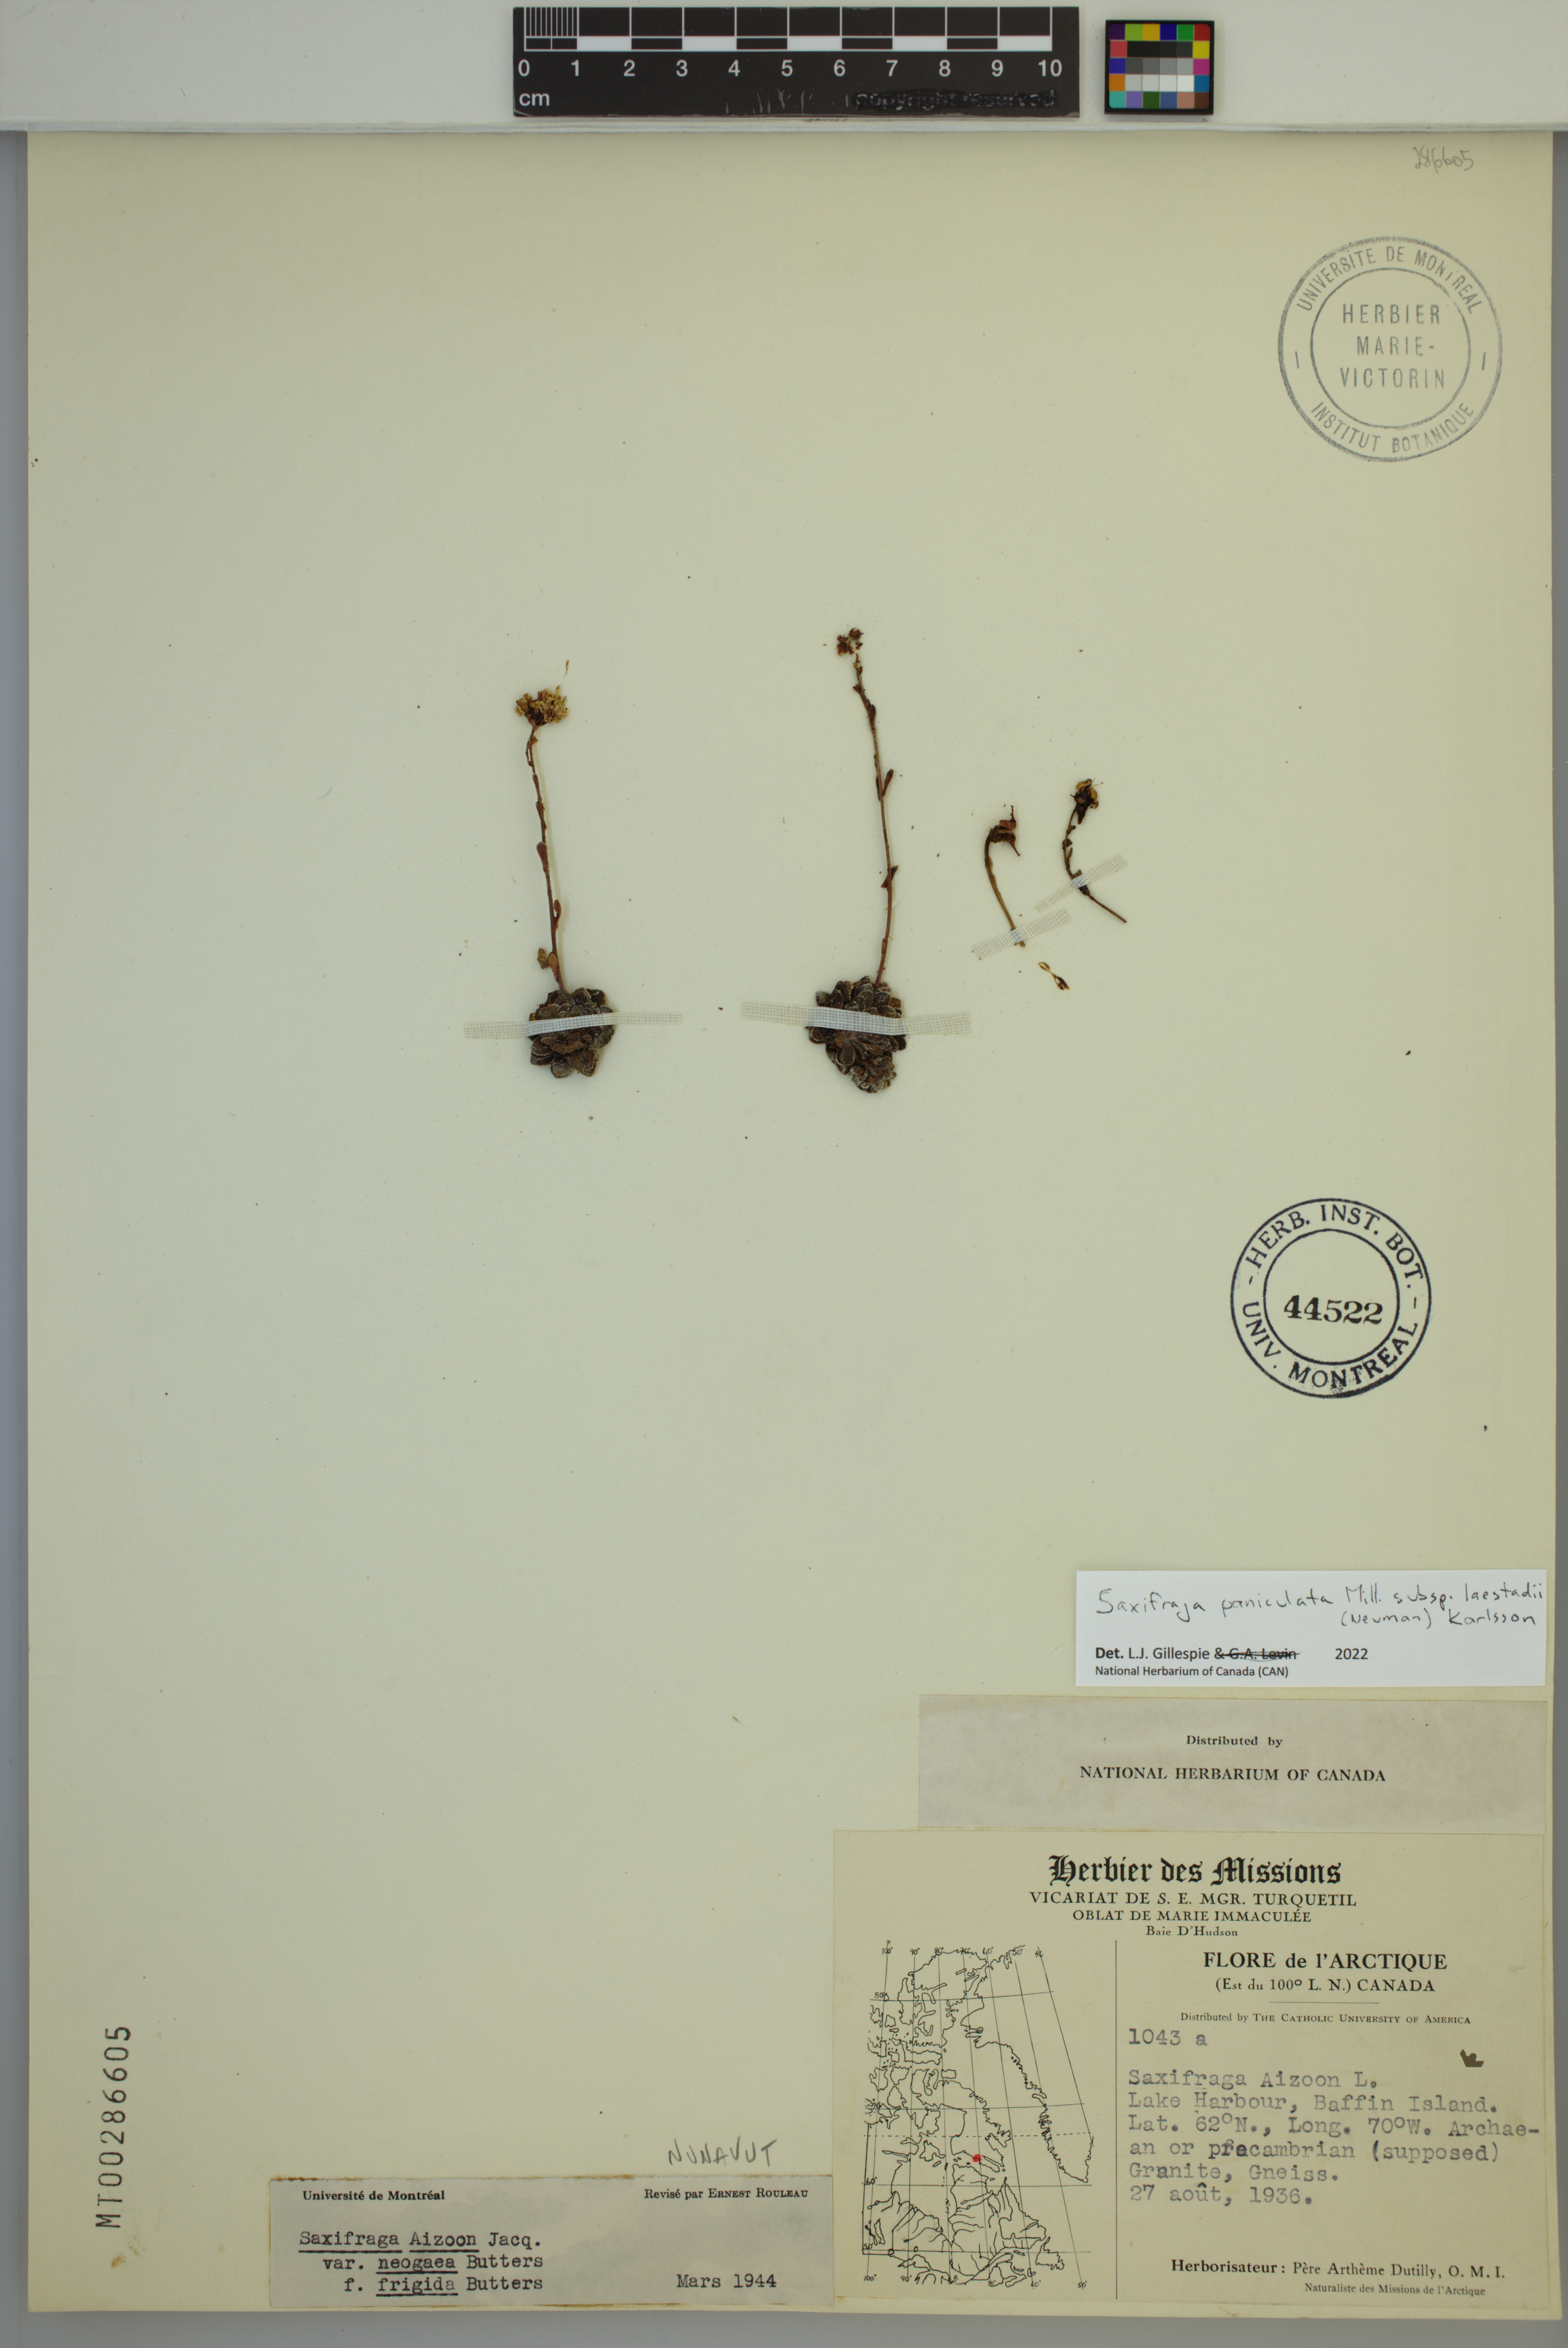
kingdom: Plantae
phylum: Tracheophyta
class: Magnoliopsida
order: Saxifragales
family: Saxifragaceae
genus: Saxifraga
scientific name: Saxifraga paniculata
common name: Livelong saxifrage
